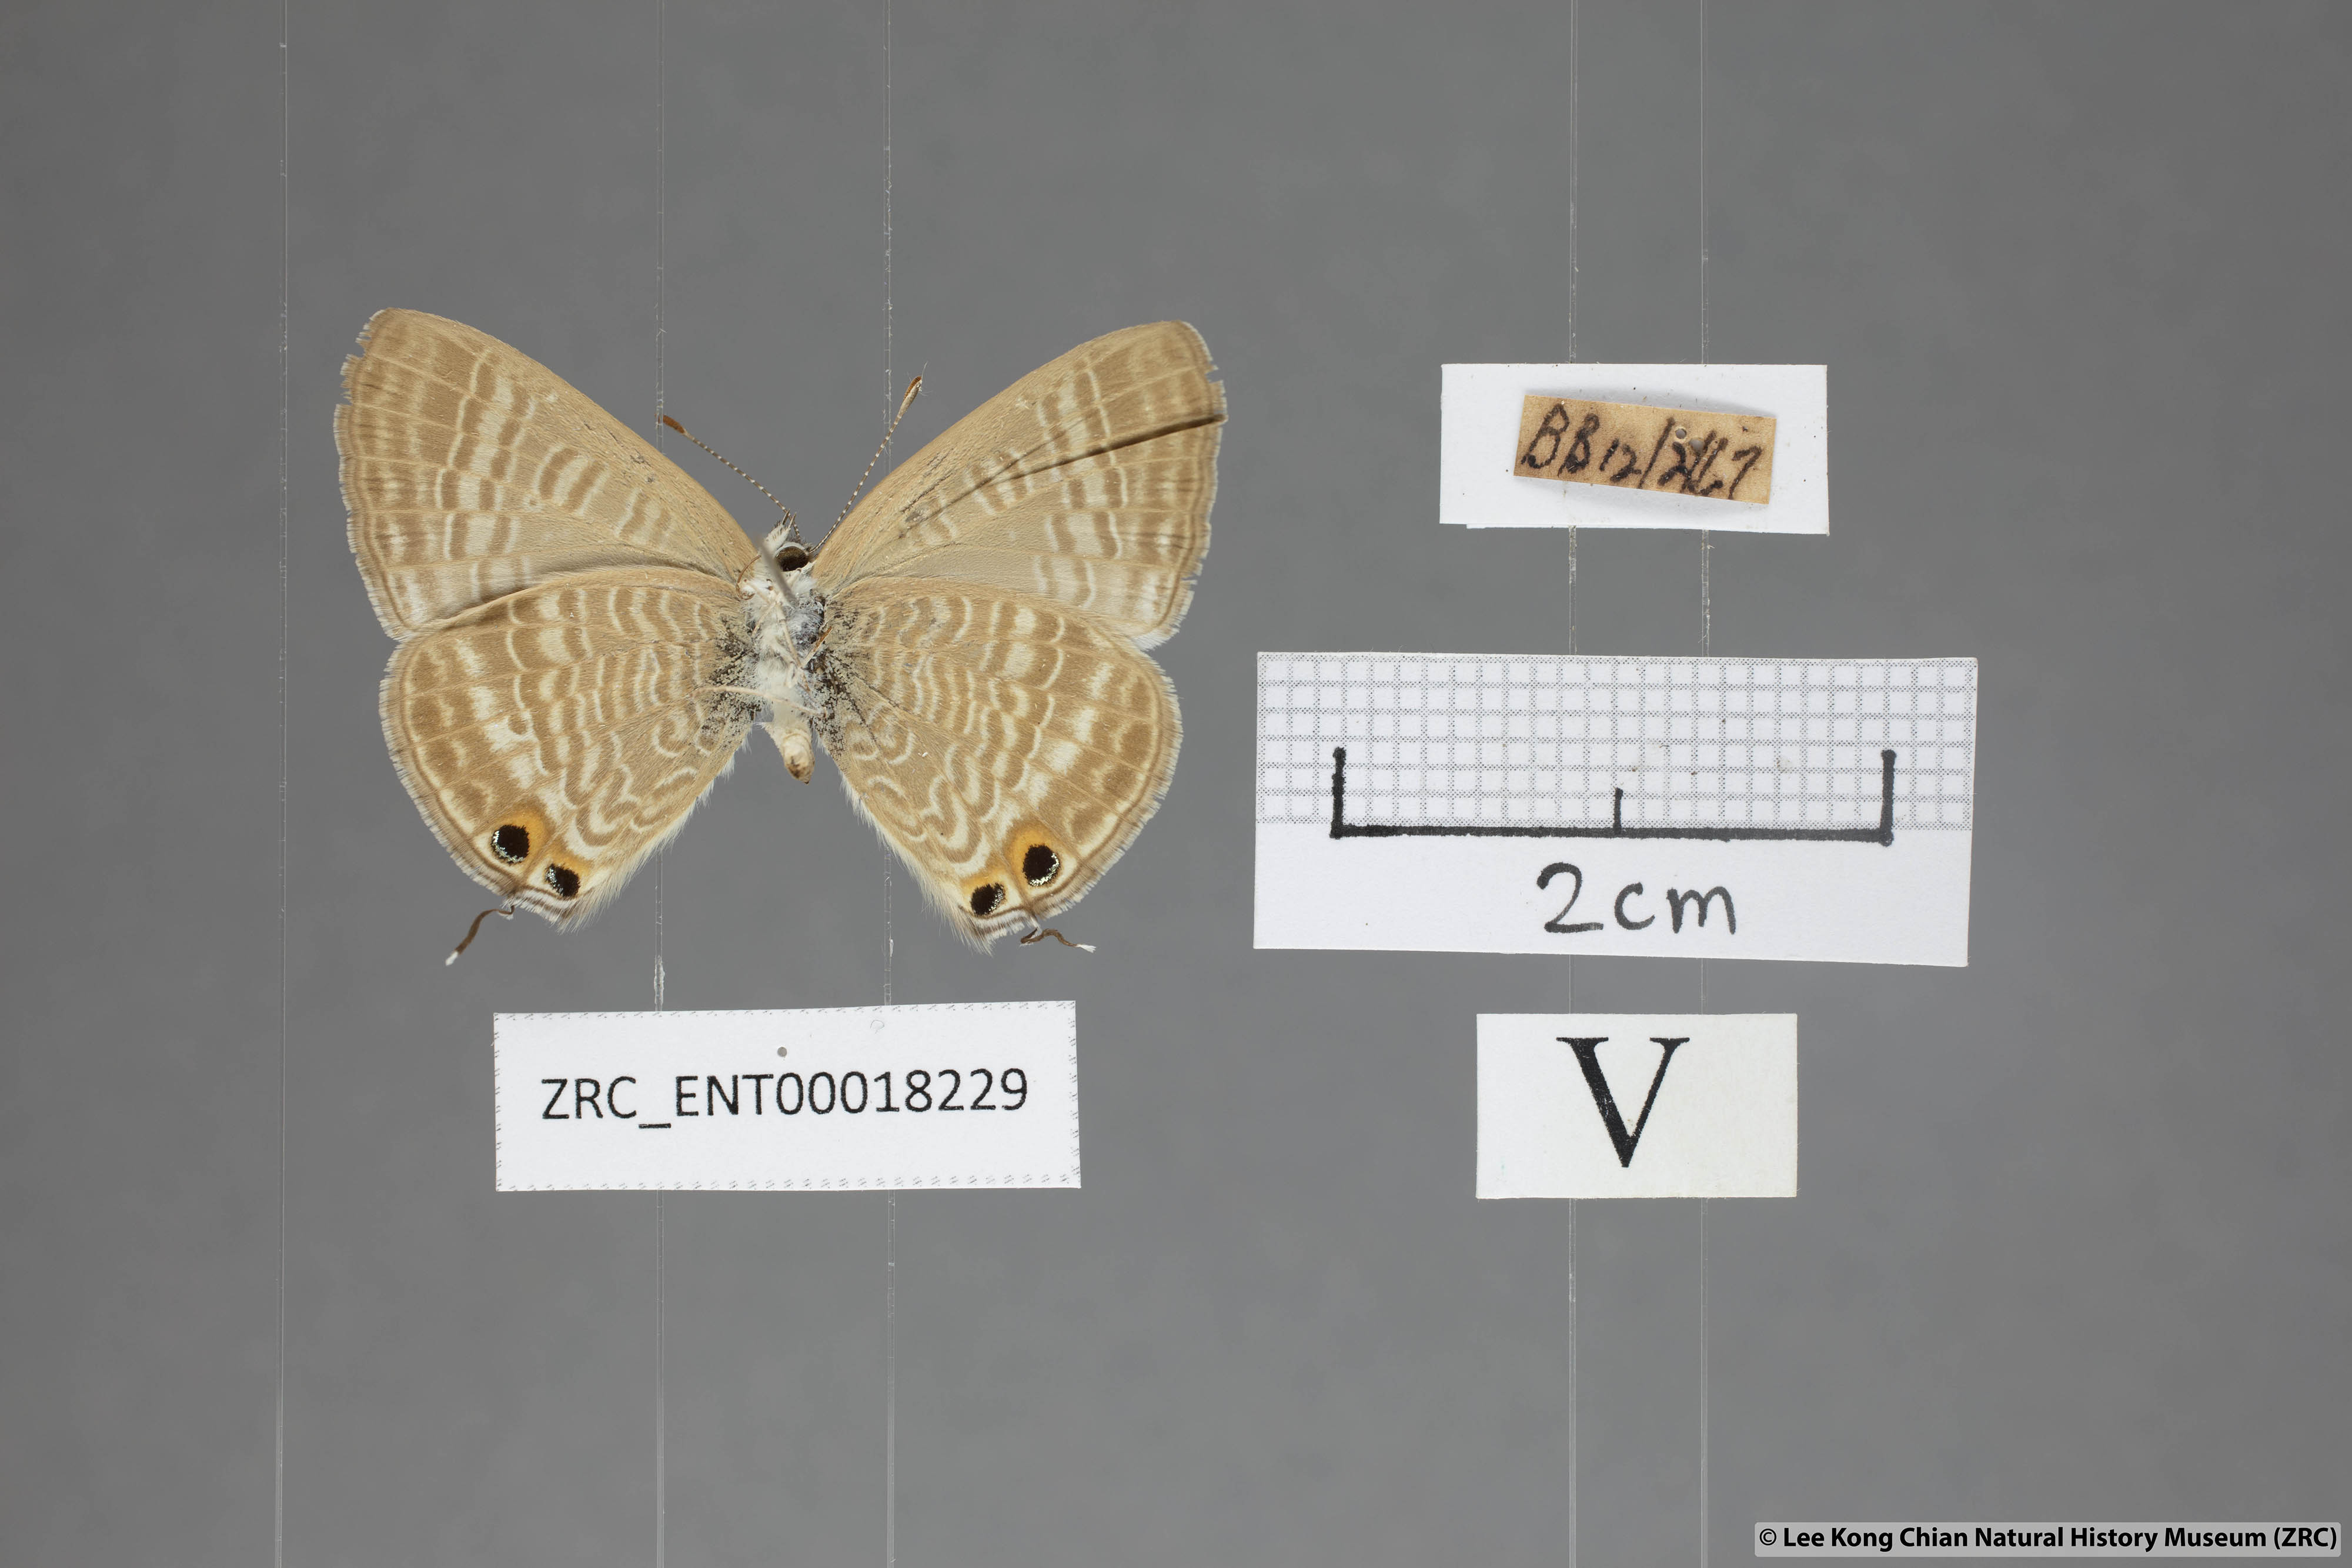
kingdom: Animalia
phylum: Arthropoda
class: Insecta
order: Lepidoptera
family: Lycaenidae
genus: Lampides
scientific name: Lampides boeticus
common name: Long-tailed blue
